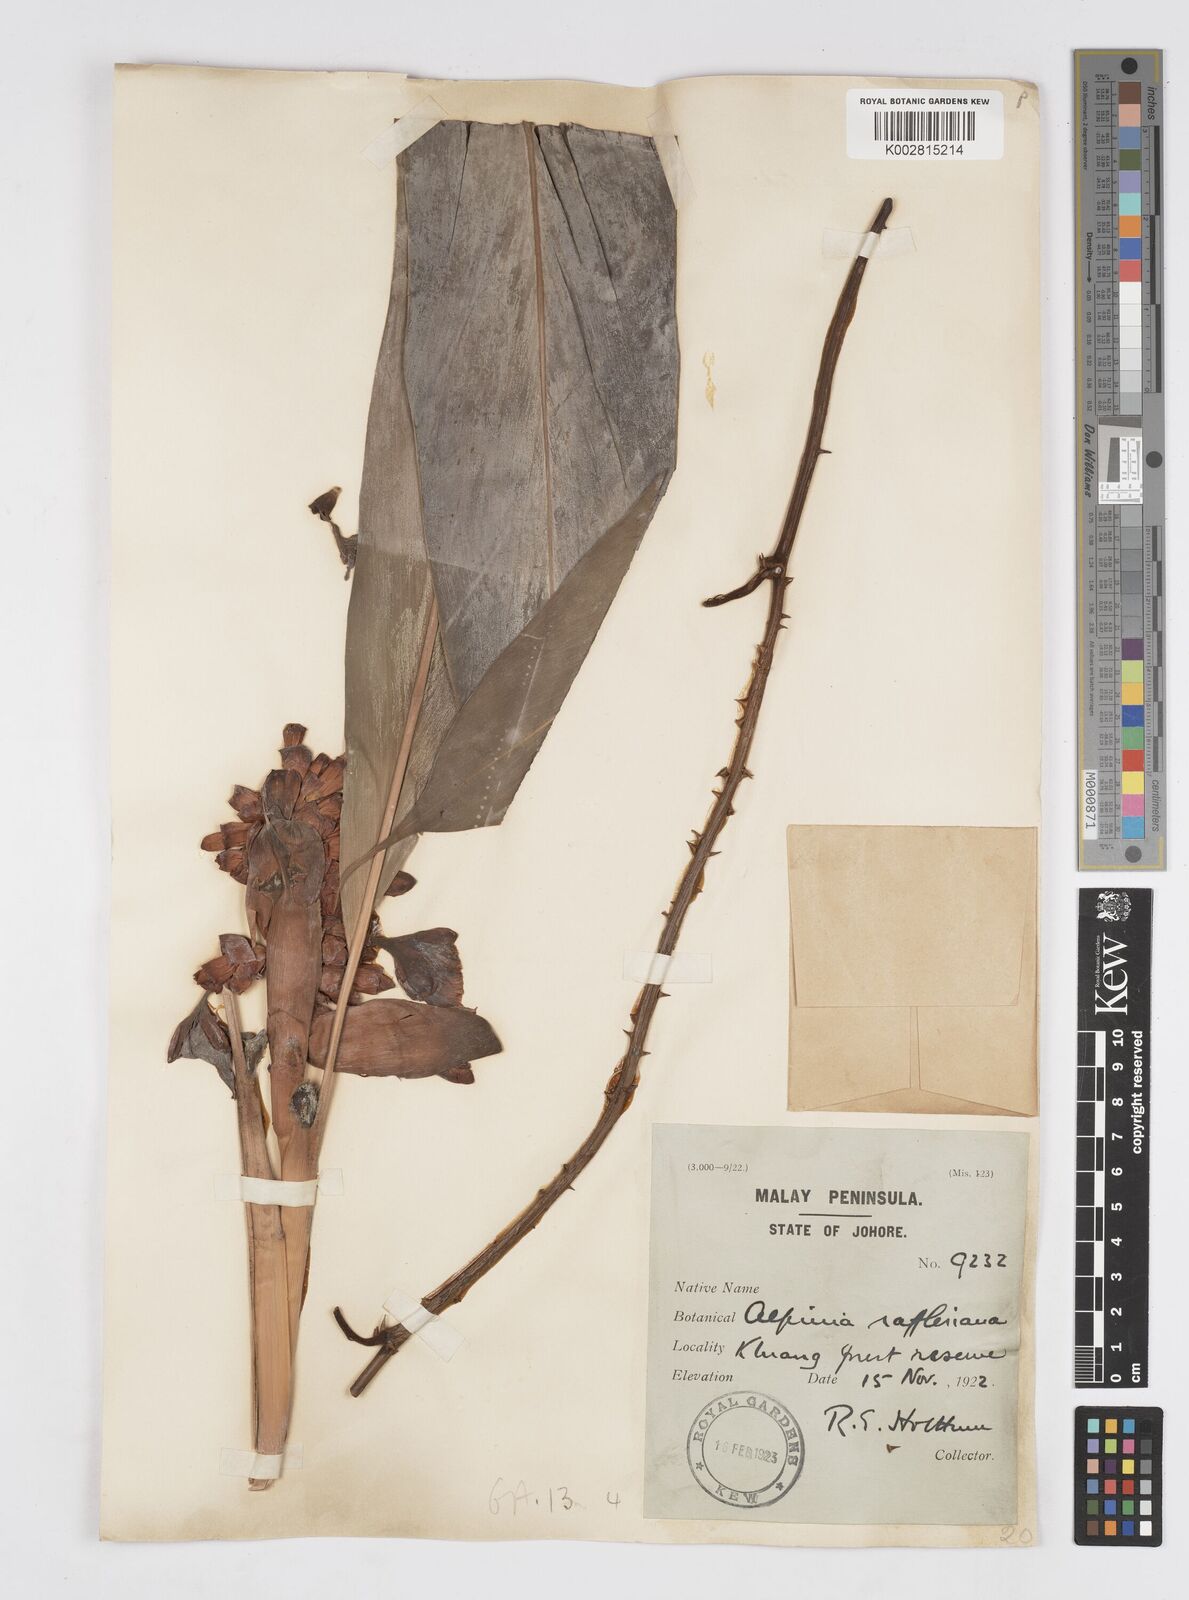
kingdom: Plantae
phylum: Tracheophyta
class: Liliopsida
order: Zingiberales
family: Zingiberaceae
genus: Alpinia
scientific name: Alpinia rafflesiana
